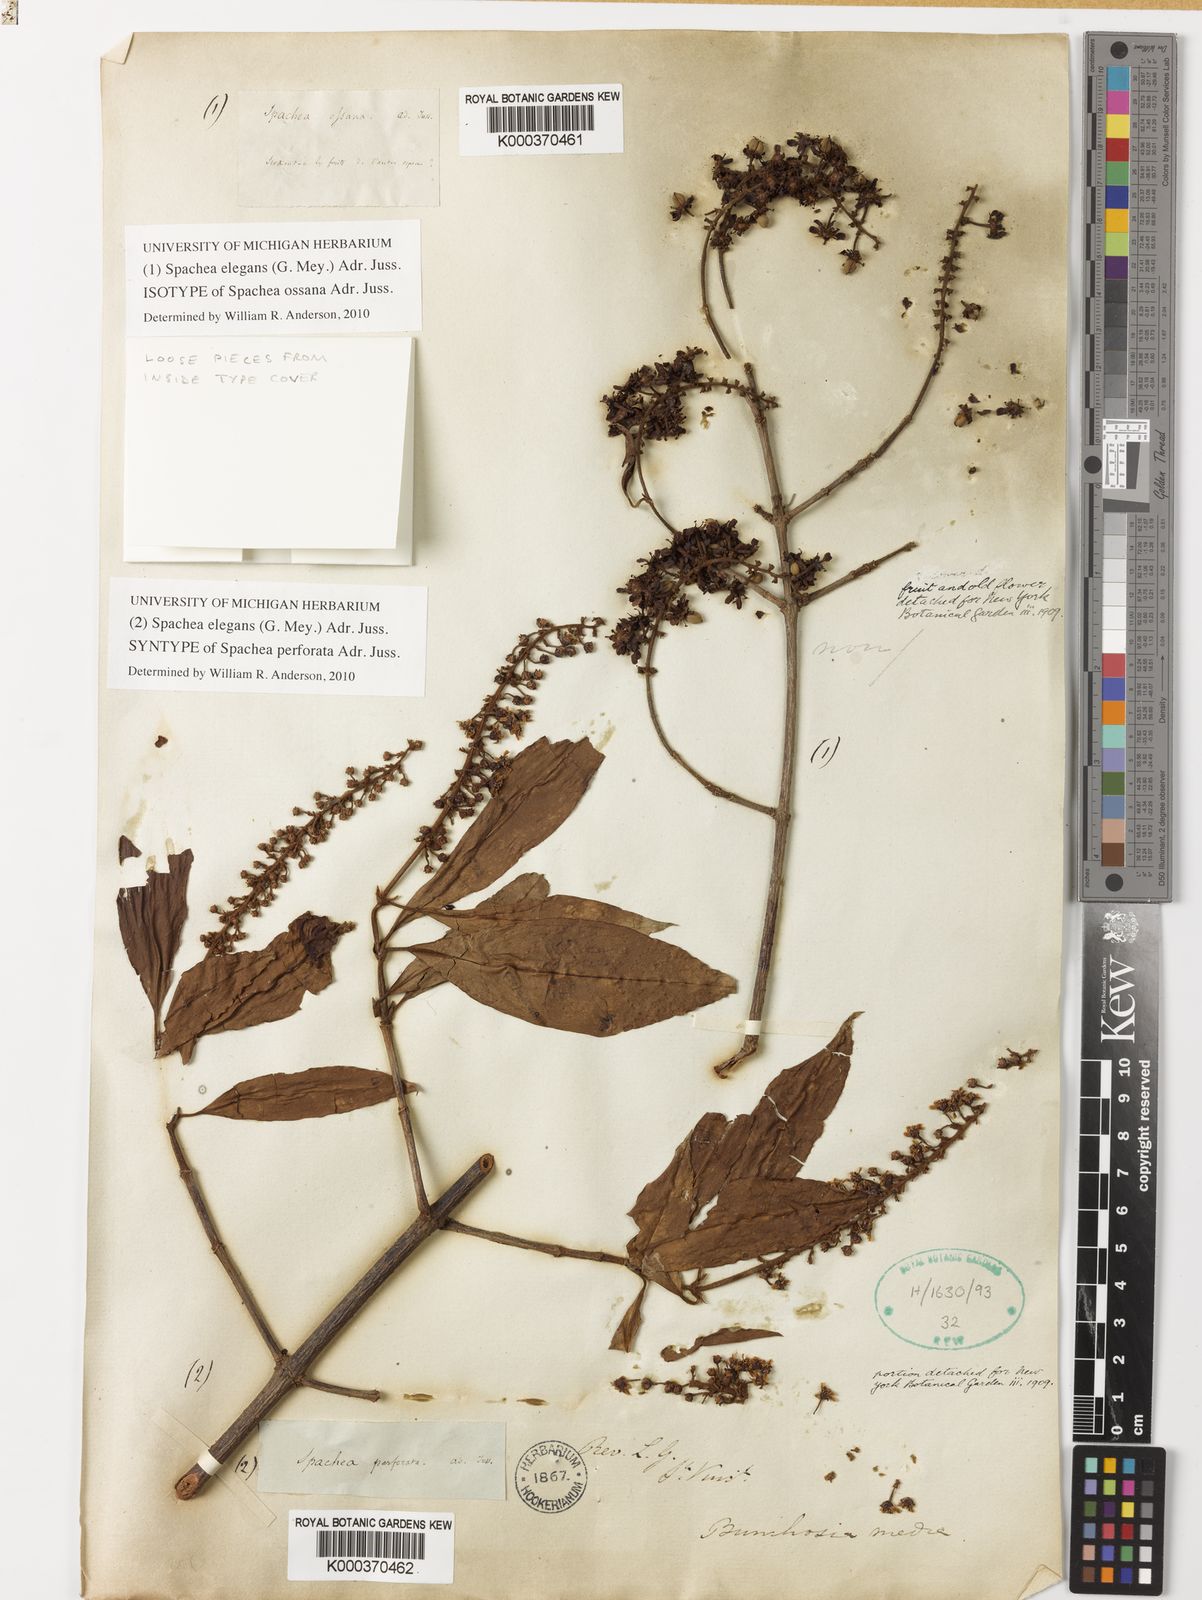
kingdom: Plantae
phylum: Tracheophyta
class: Magnoliopsida
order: Malpighiales
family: Malpighiaceae
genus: Spachea
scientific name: Spachea elegans
